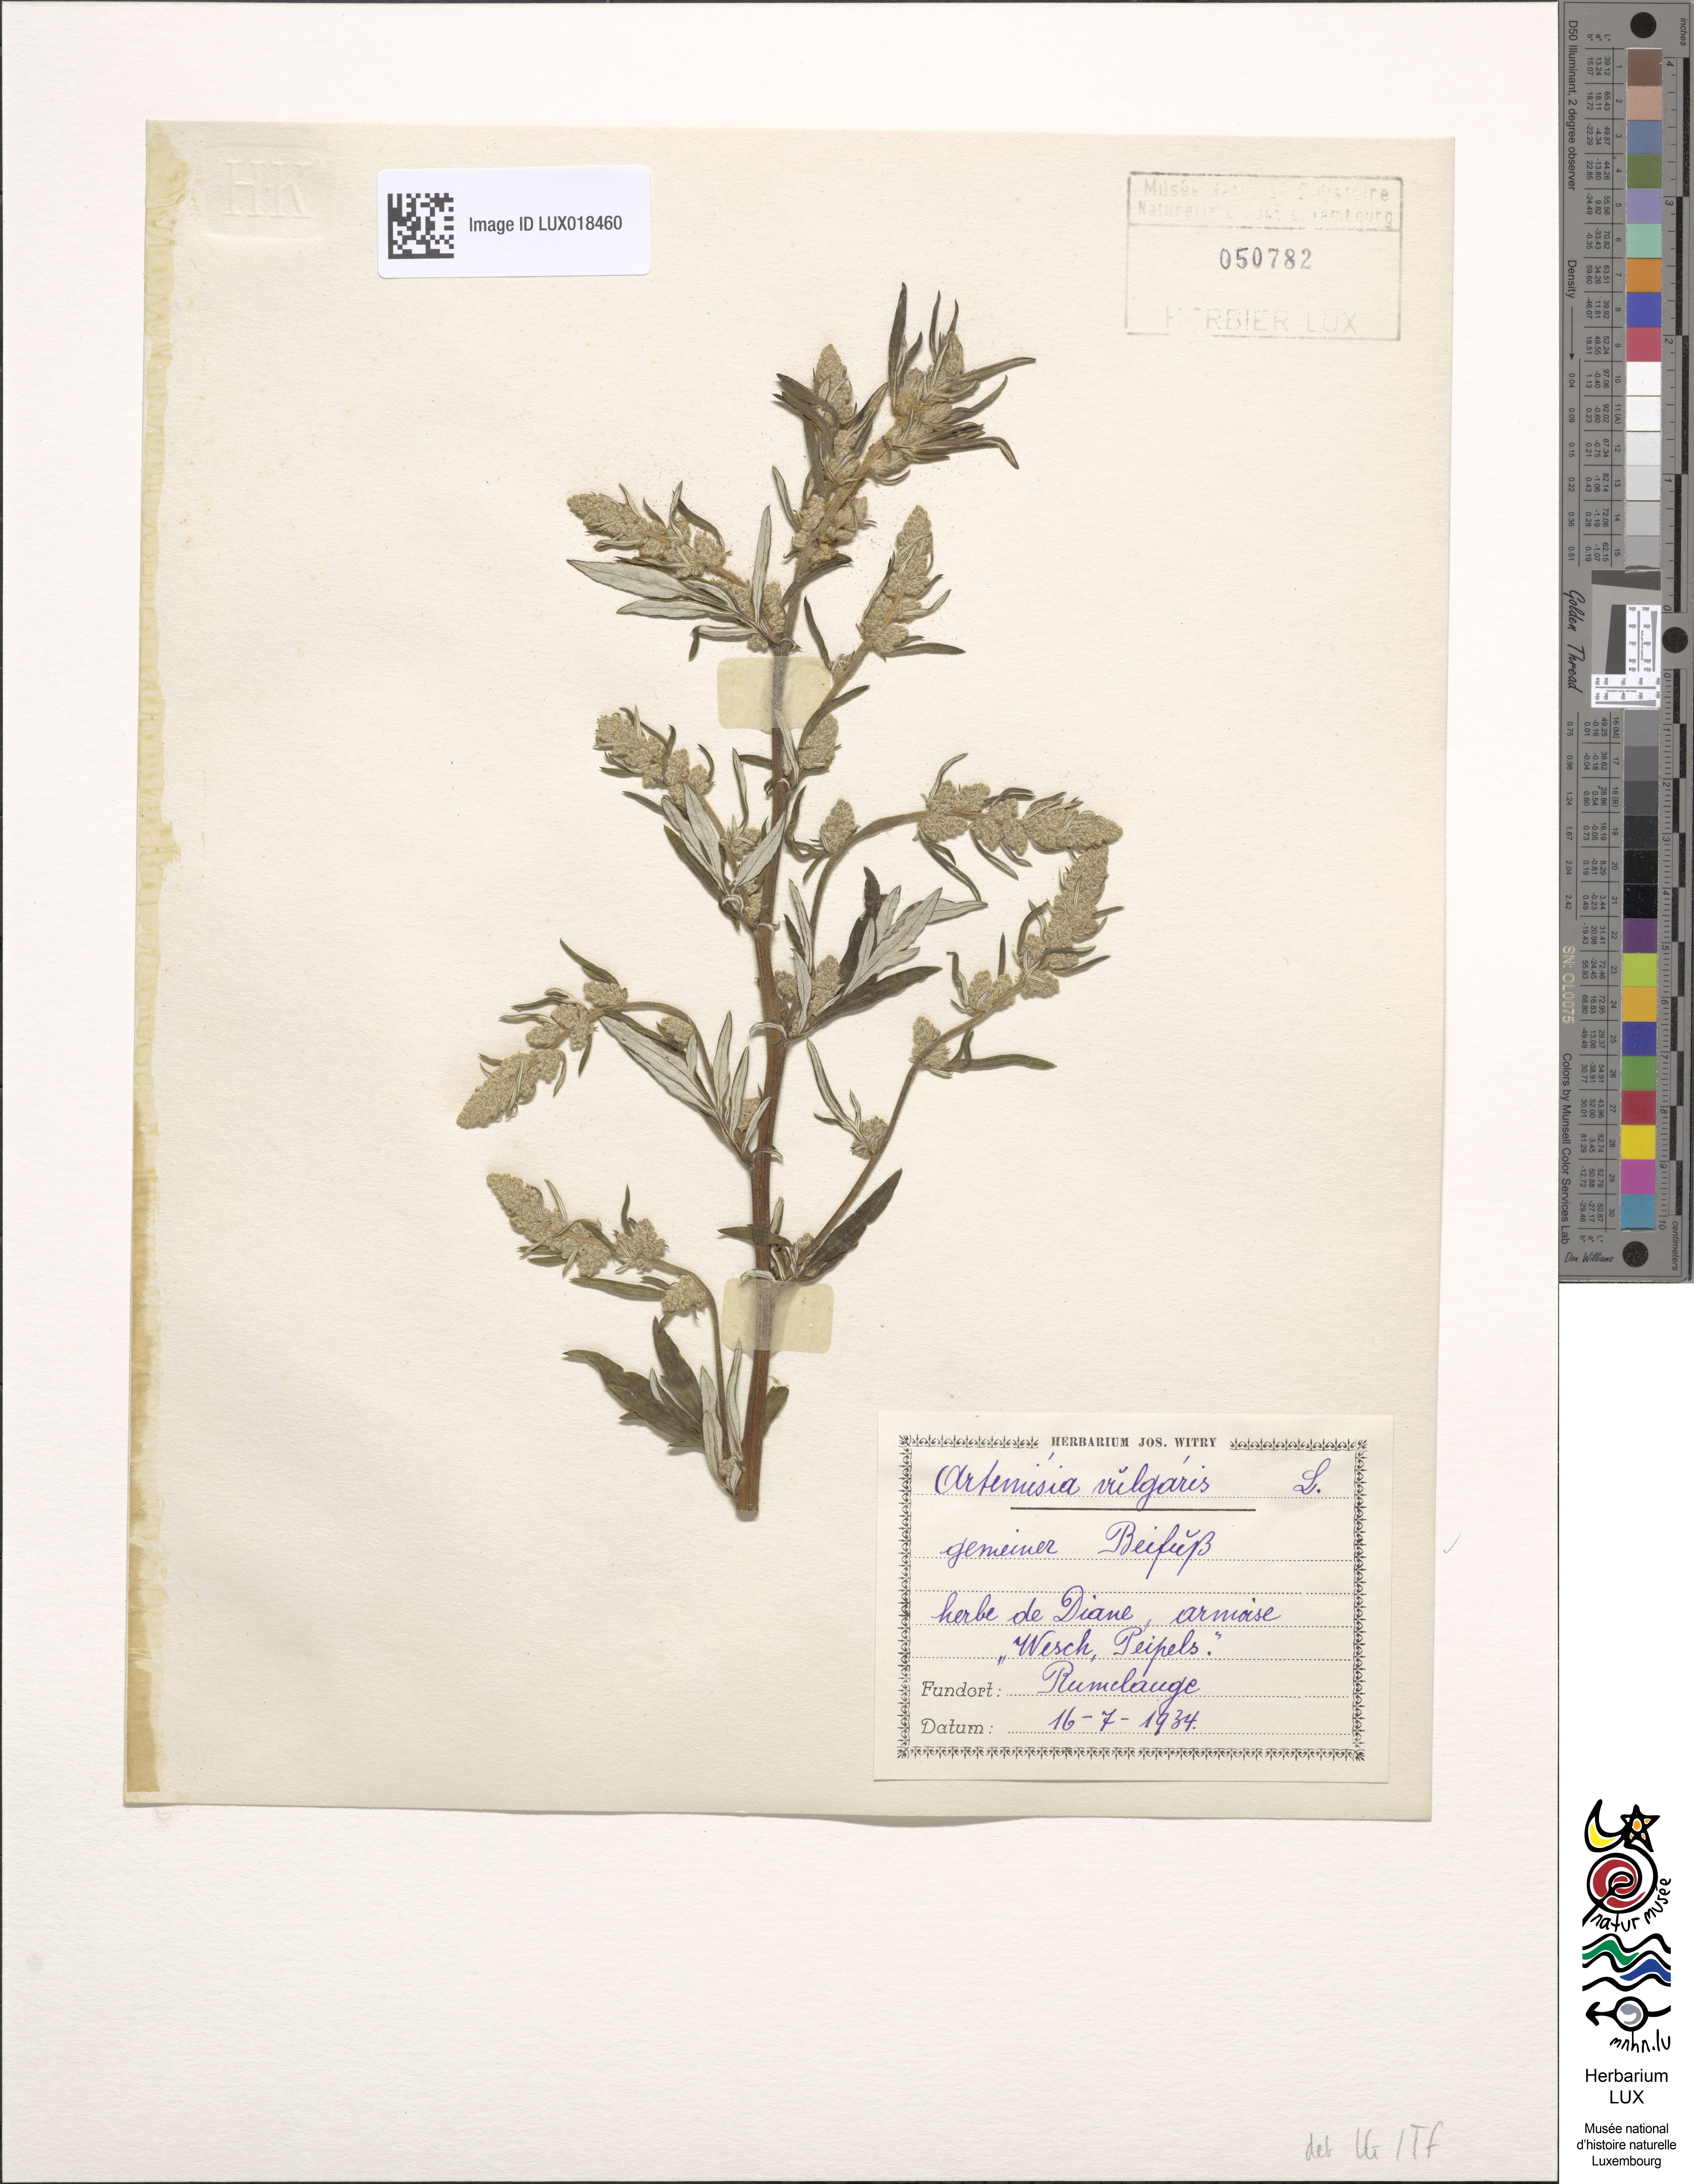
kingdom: Plantae
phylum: Tracheophyta
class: Magnoliopsida
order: Asterales
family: Asteraceae
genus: Artemisia
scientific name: Artemisia vulgaris
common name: Mugwort
